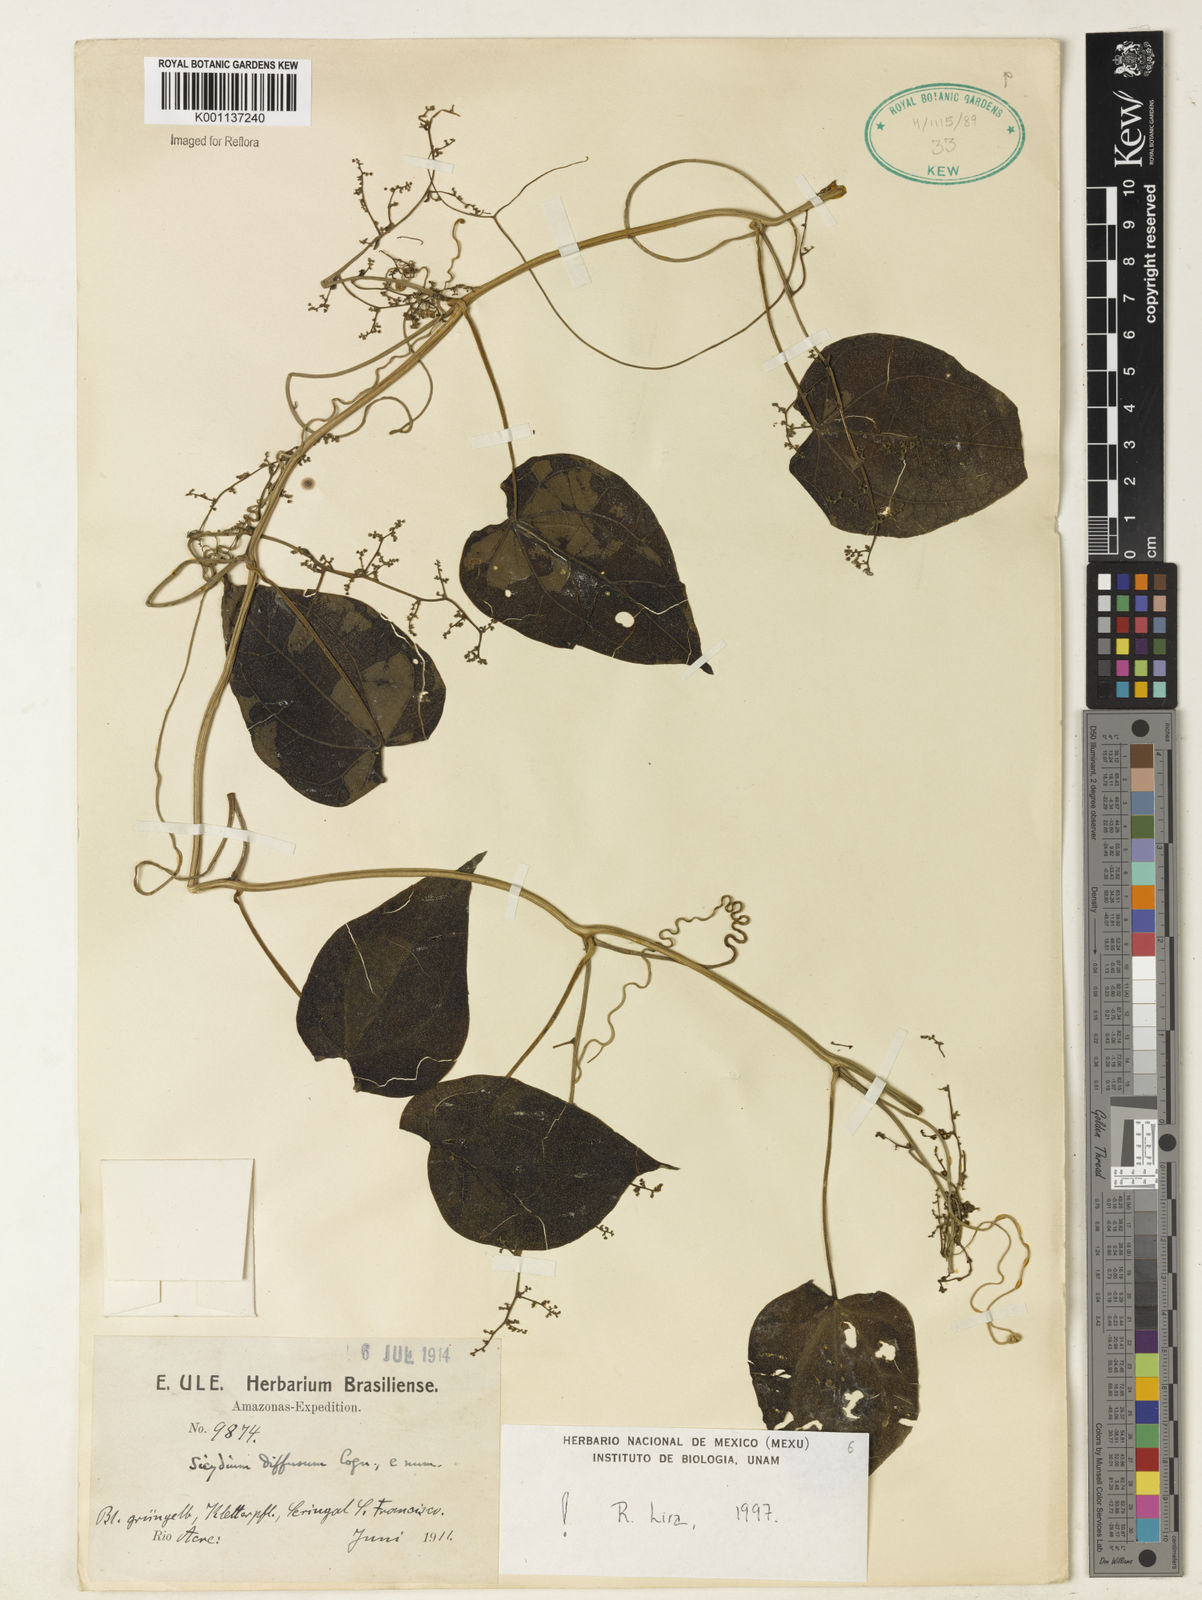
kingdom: Plantae
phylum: Tracheophyta
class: Magnoliopsida
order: Cucurbitales
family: Cucurbitaceae
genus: Sicydium
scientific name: Sicydium diffusum
